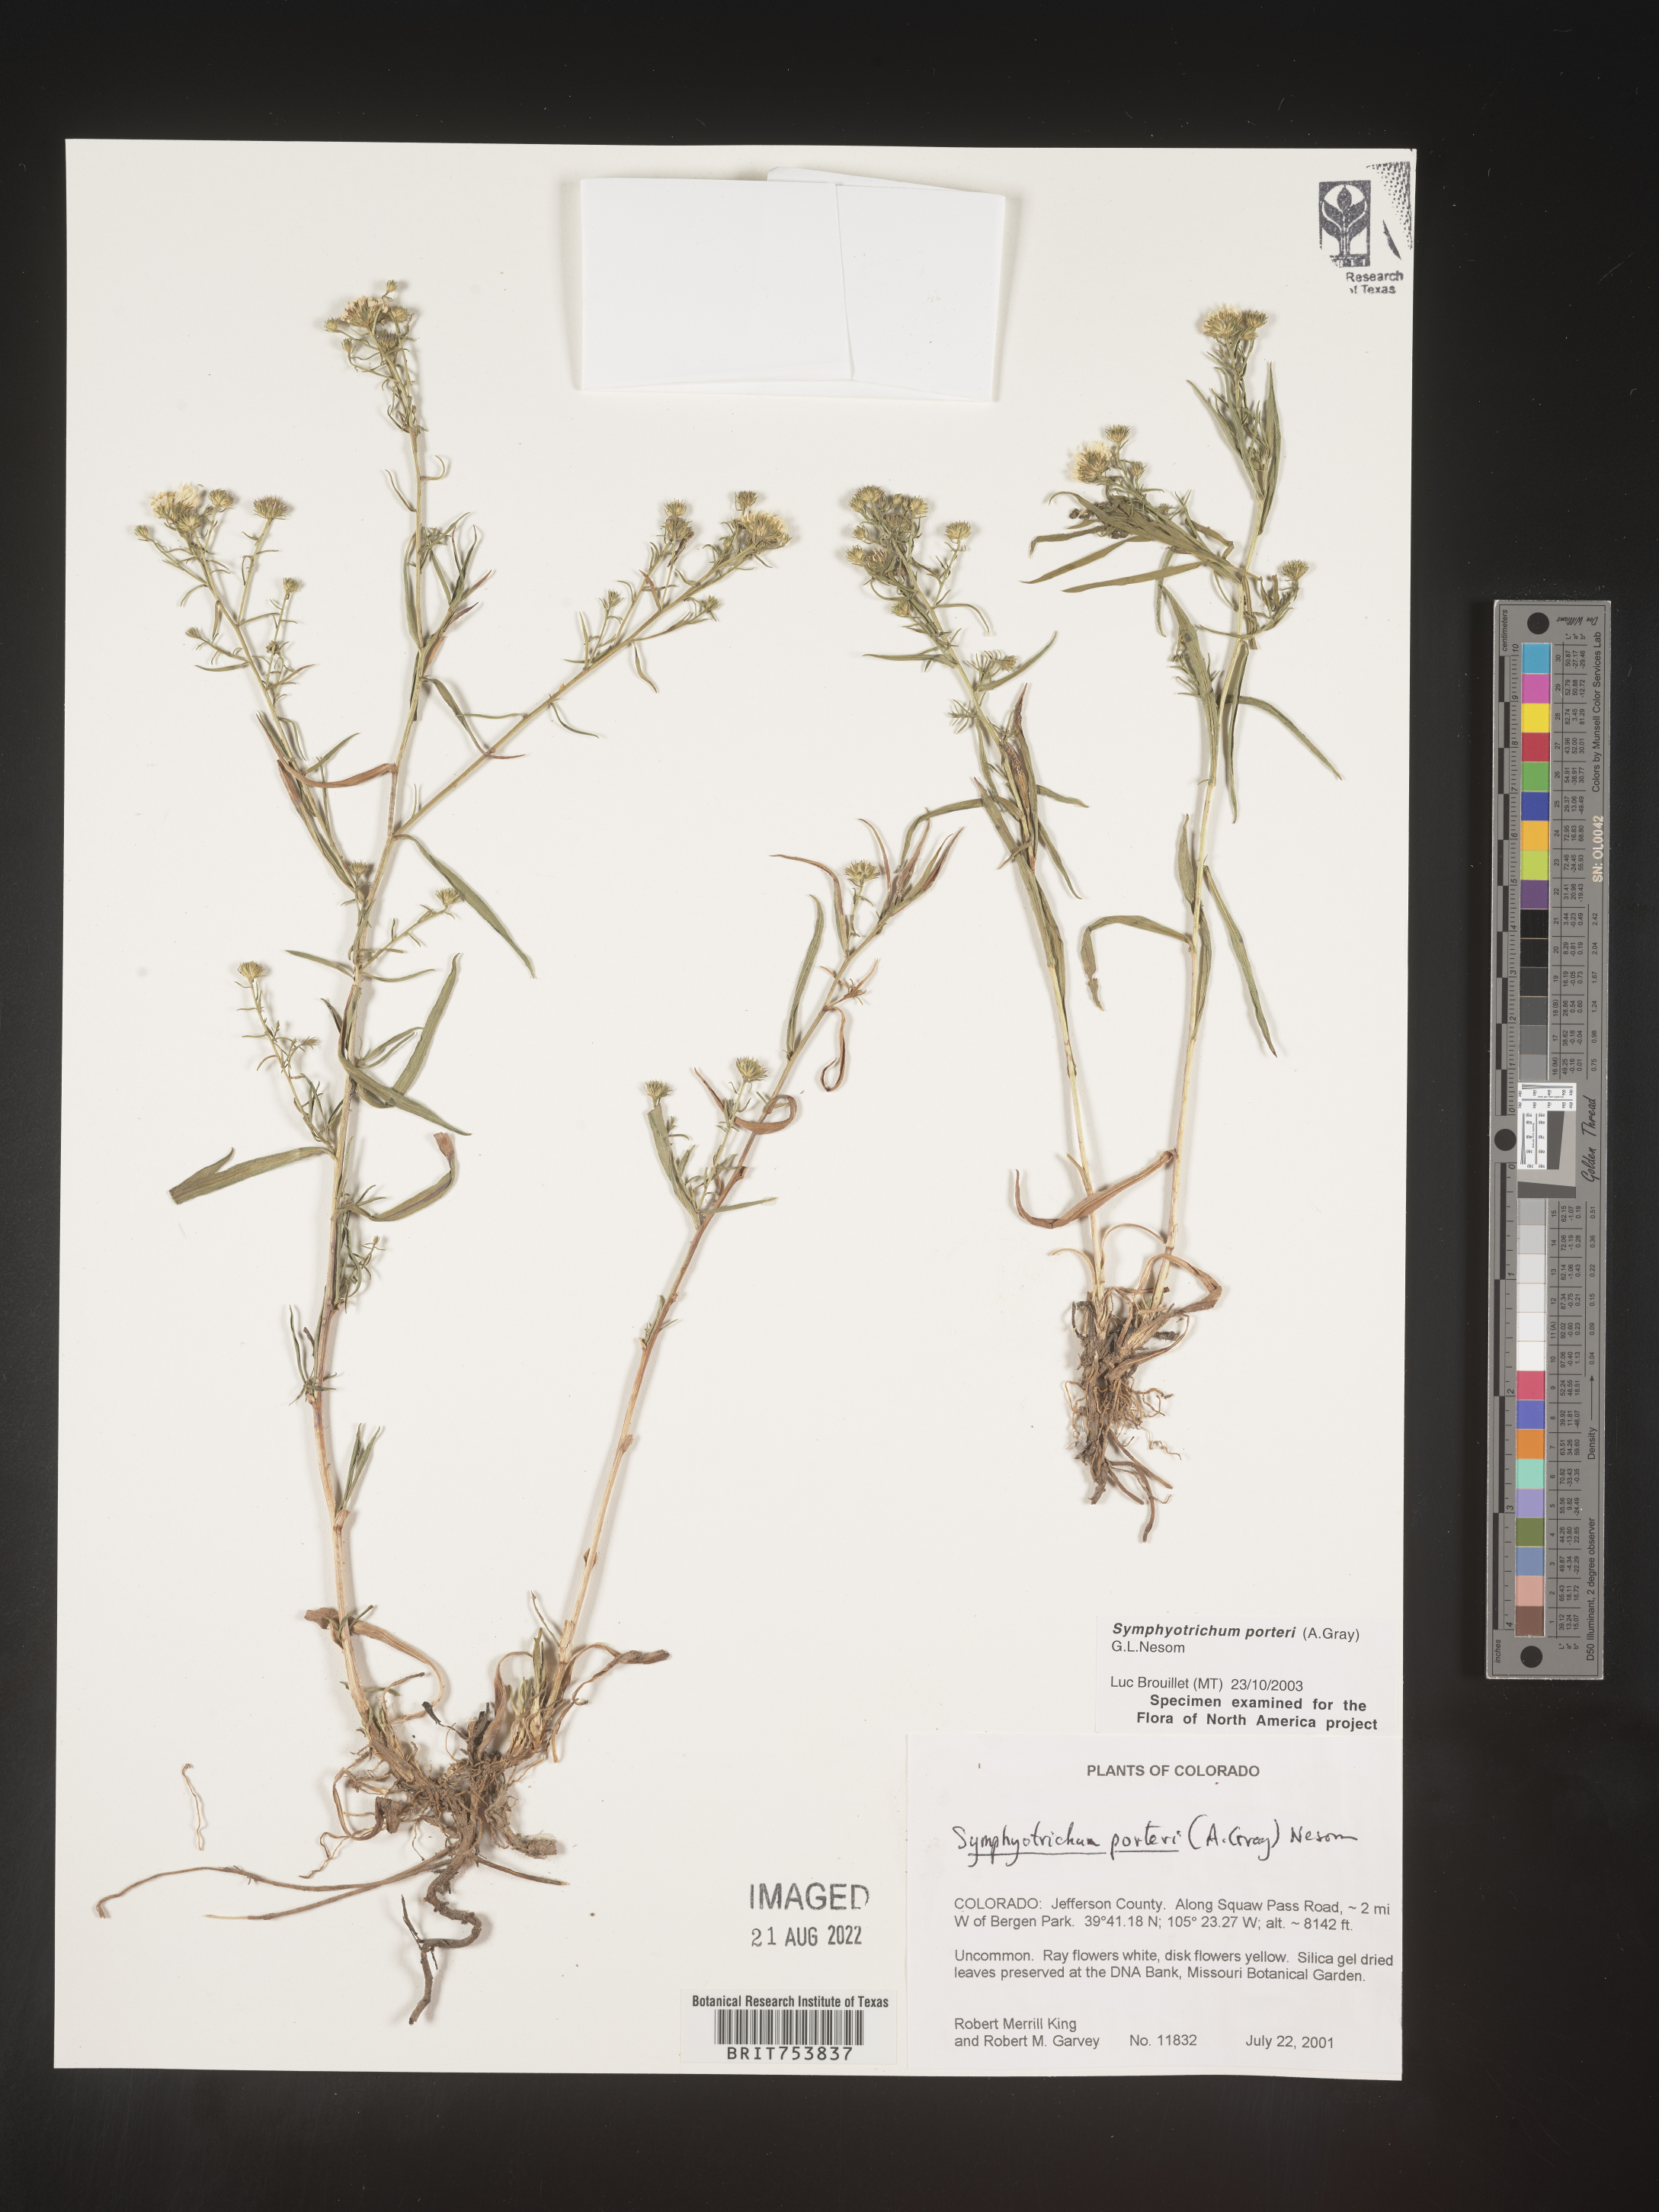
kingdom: Plantae
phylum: Tracheophyta
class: Magnoliopsida
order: Asterales
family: Asteraceae
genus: Symphyotrichum
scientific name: Symphyotrichum porteri
